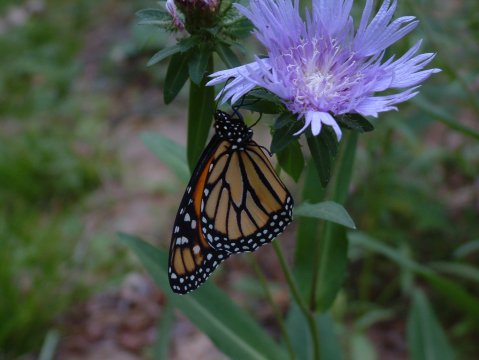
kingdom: Animalia
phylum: Arthropoda
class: Insecta
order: Lepidoptera
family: Nymphalidae
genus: Danaus
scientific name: Danaus plexippus
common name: Monarch
